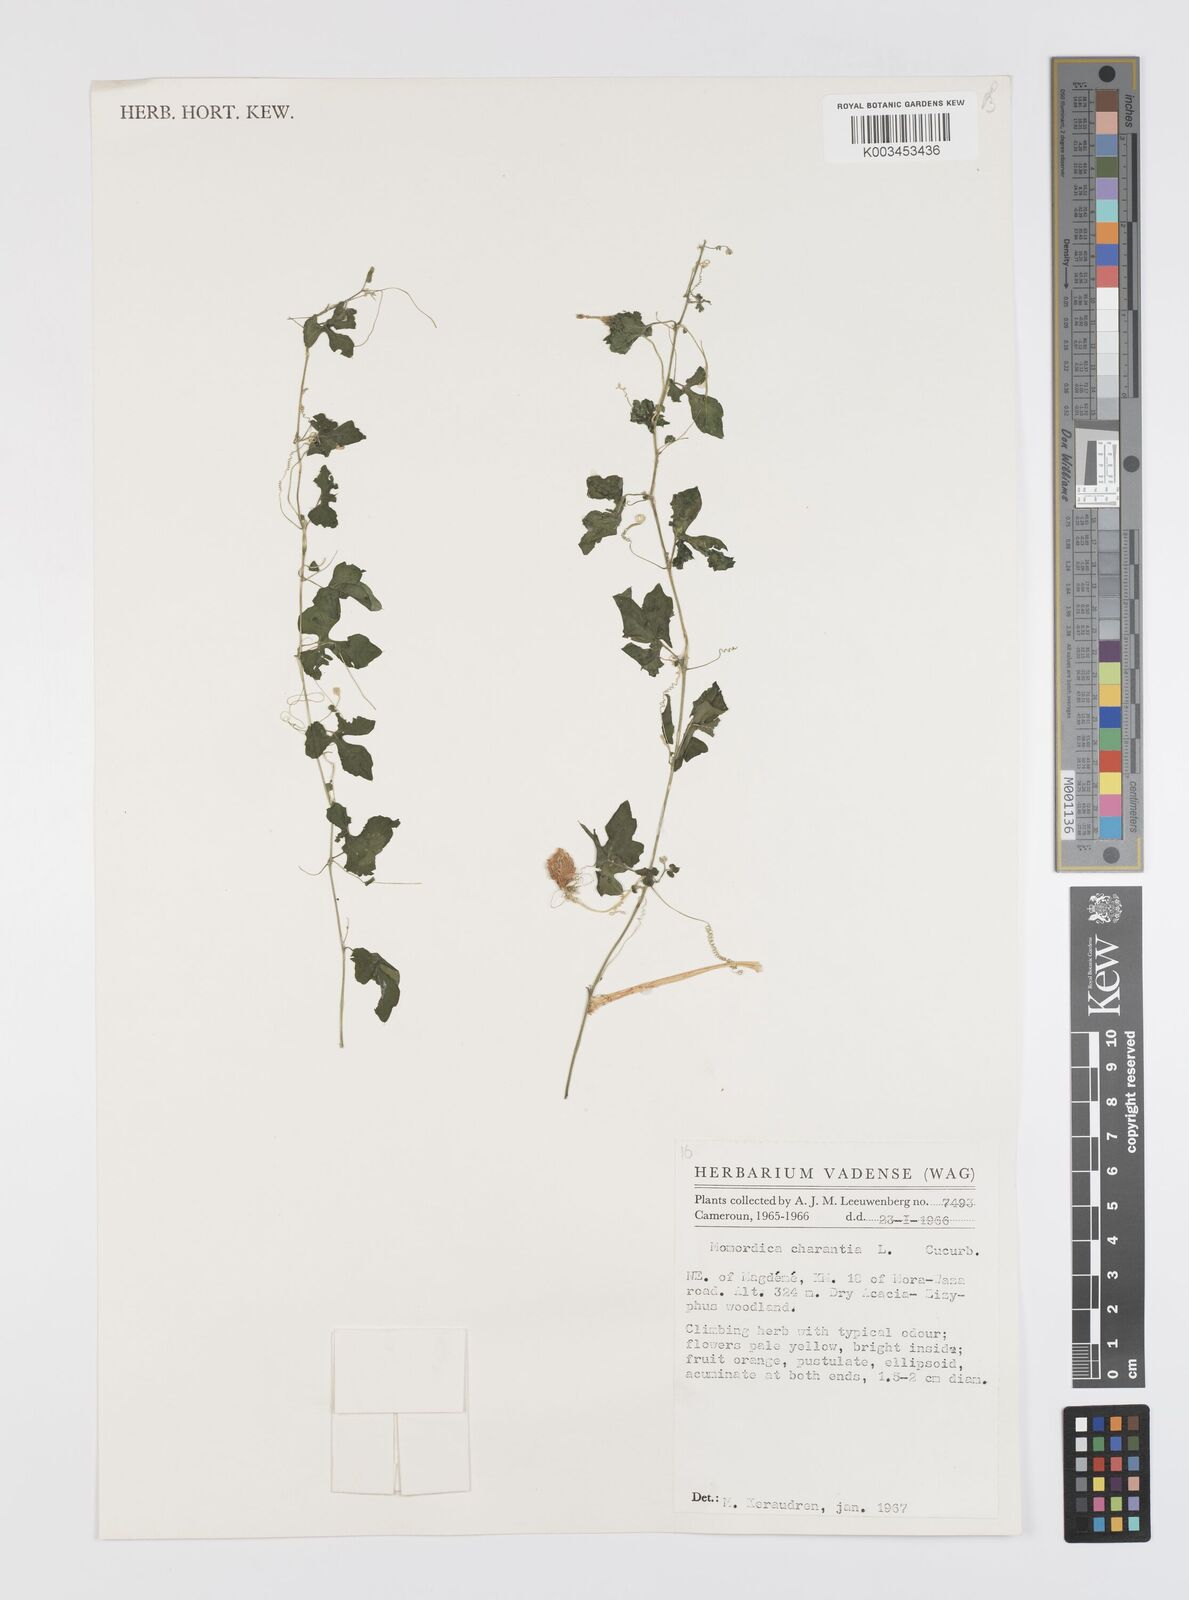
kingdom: Plantae
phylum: Tracheophyta
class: Magnoliopsida
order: Cucurbitales
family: Cucurbitaceae
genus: Momordica
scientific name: Momordica charantia
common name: Balsampear
